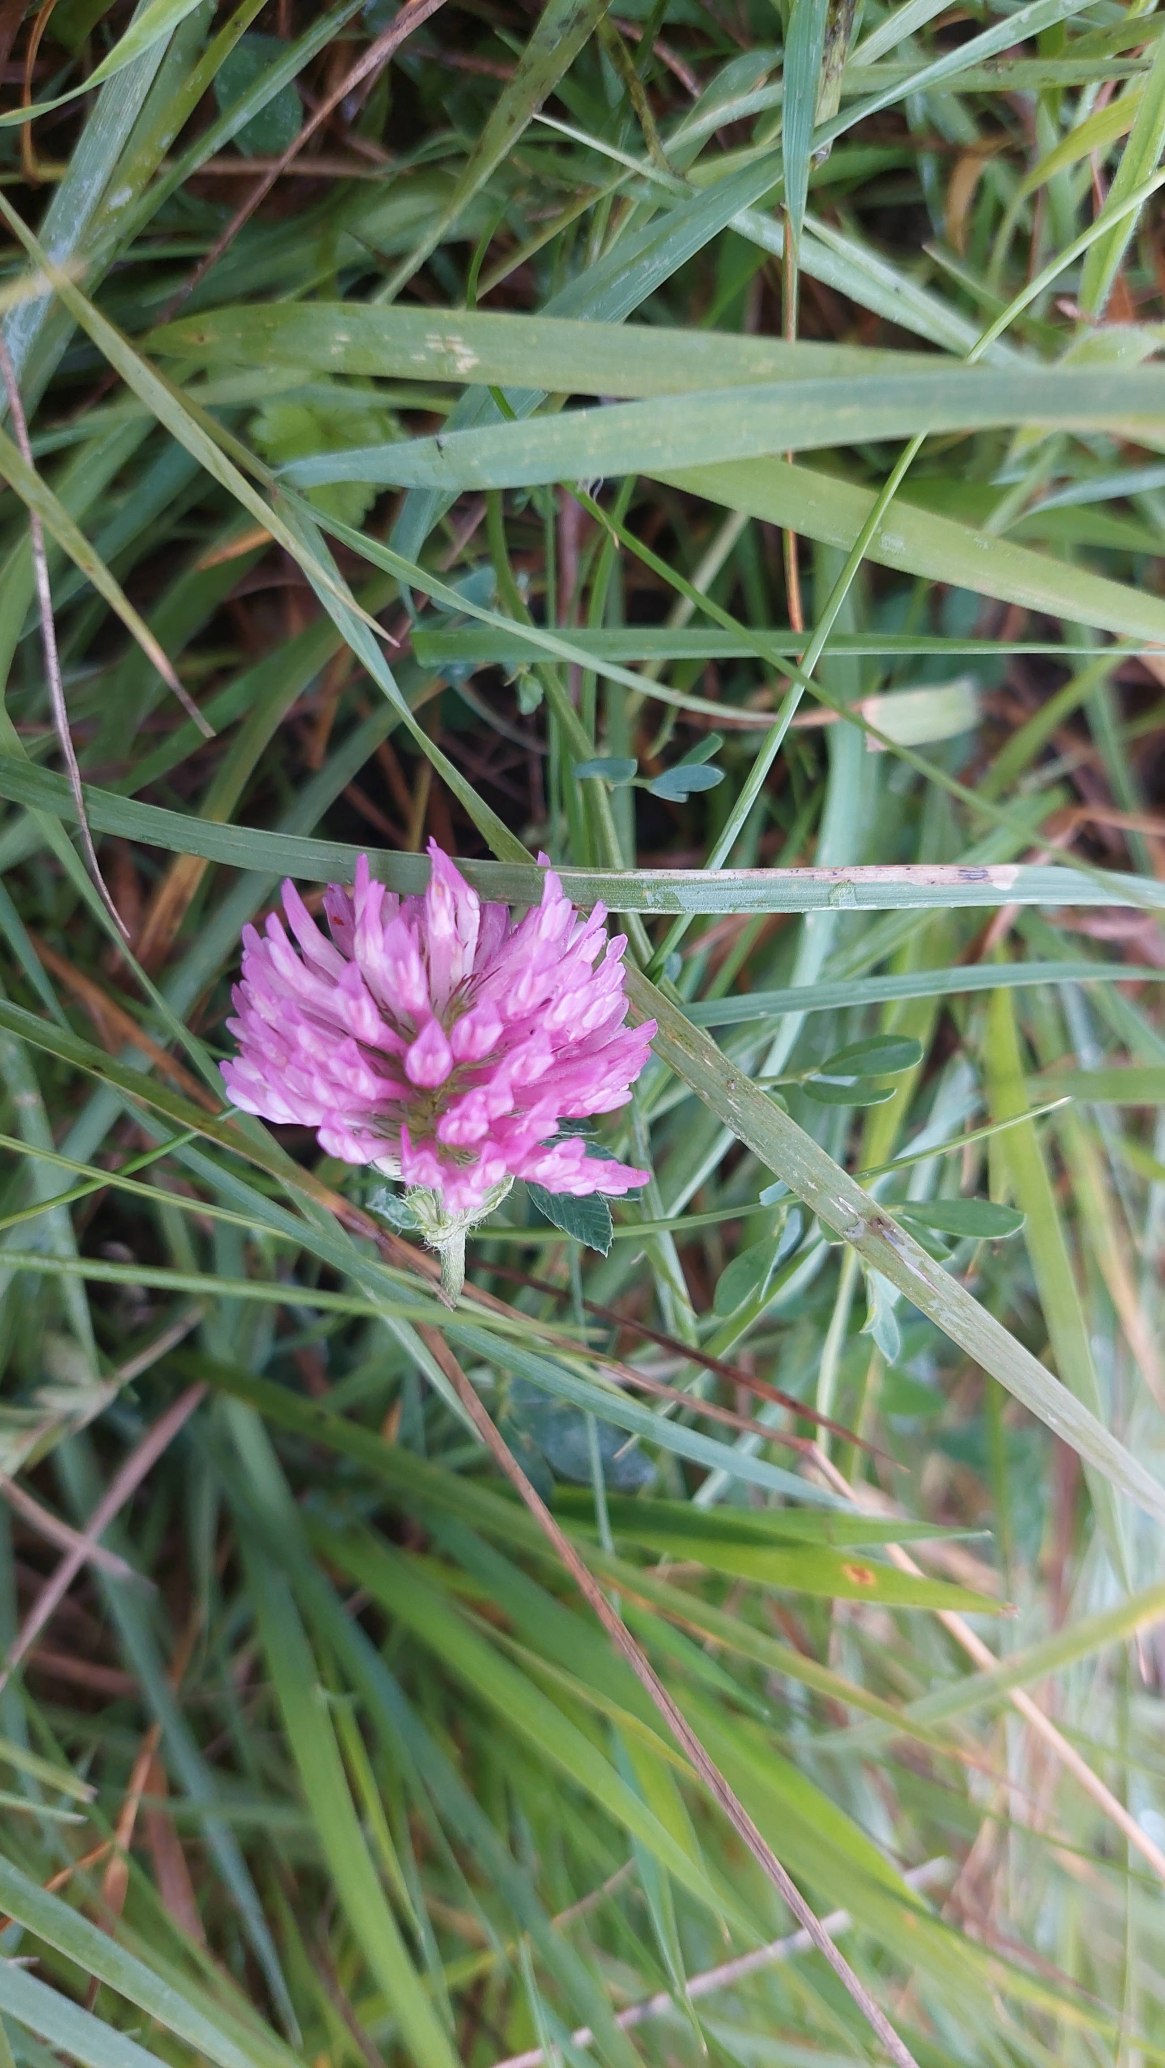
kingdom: Plantae
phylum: Tracheophyta
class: Magnoliopsida
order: Fabales
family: Fabaceae
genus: Trifolium
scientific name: Trifolium pratense
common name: Rød-kløver
